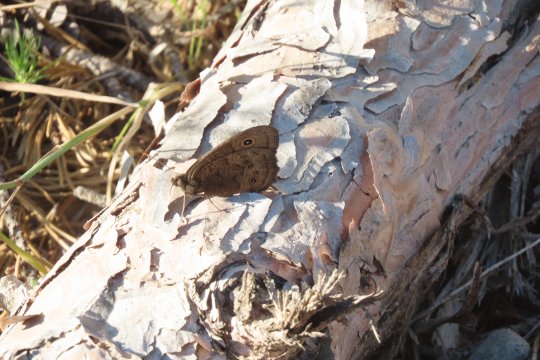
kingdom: Animalia
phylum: Arthropoda
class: Insecta
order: Lepidoptera
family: Nymphalidae
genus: Cercyonis
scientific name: Cercyonis pegala
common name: Common Wood-Nymph
